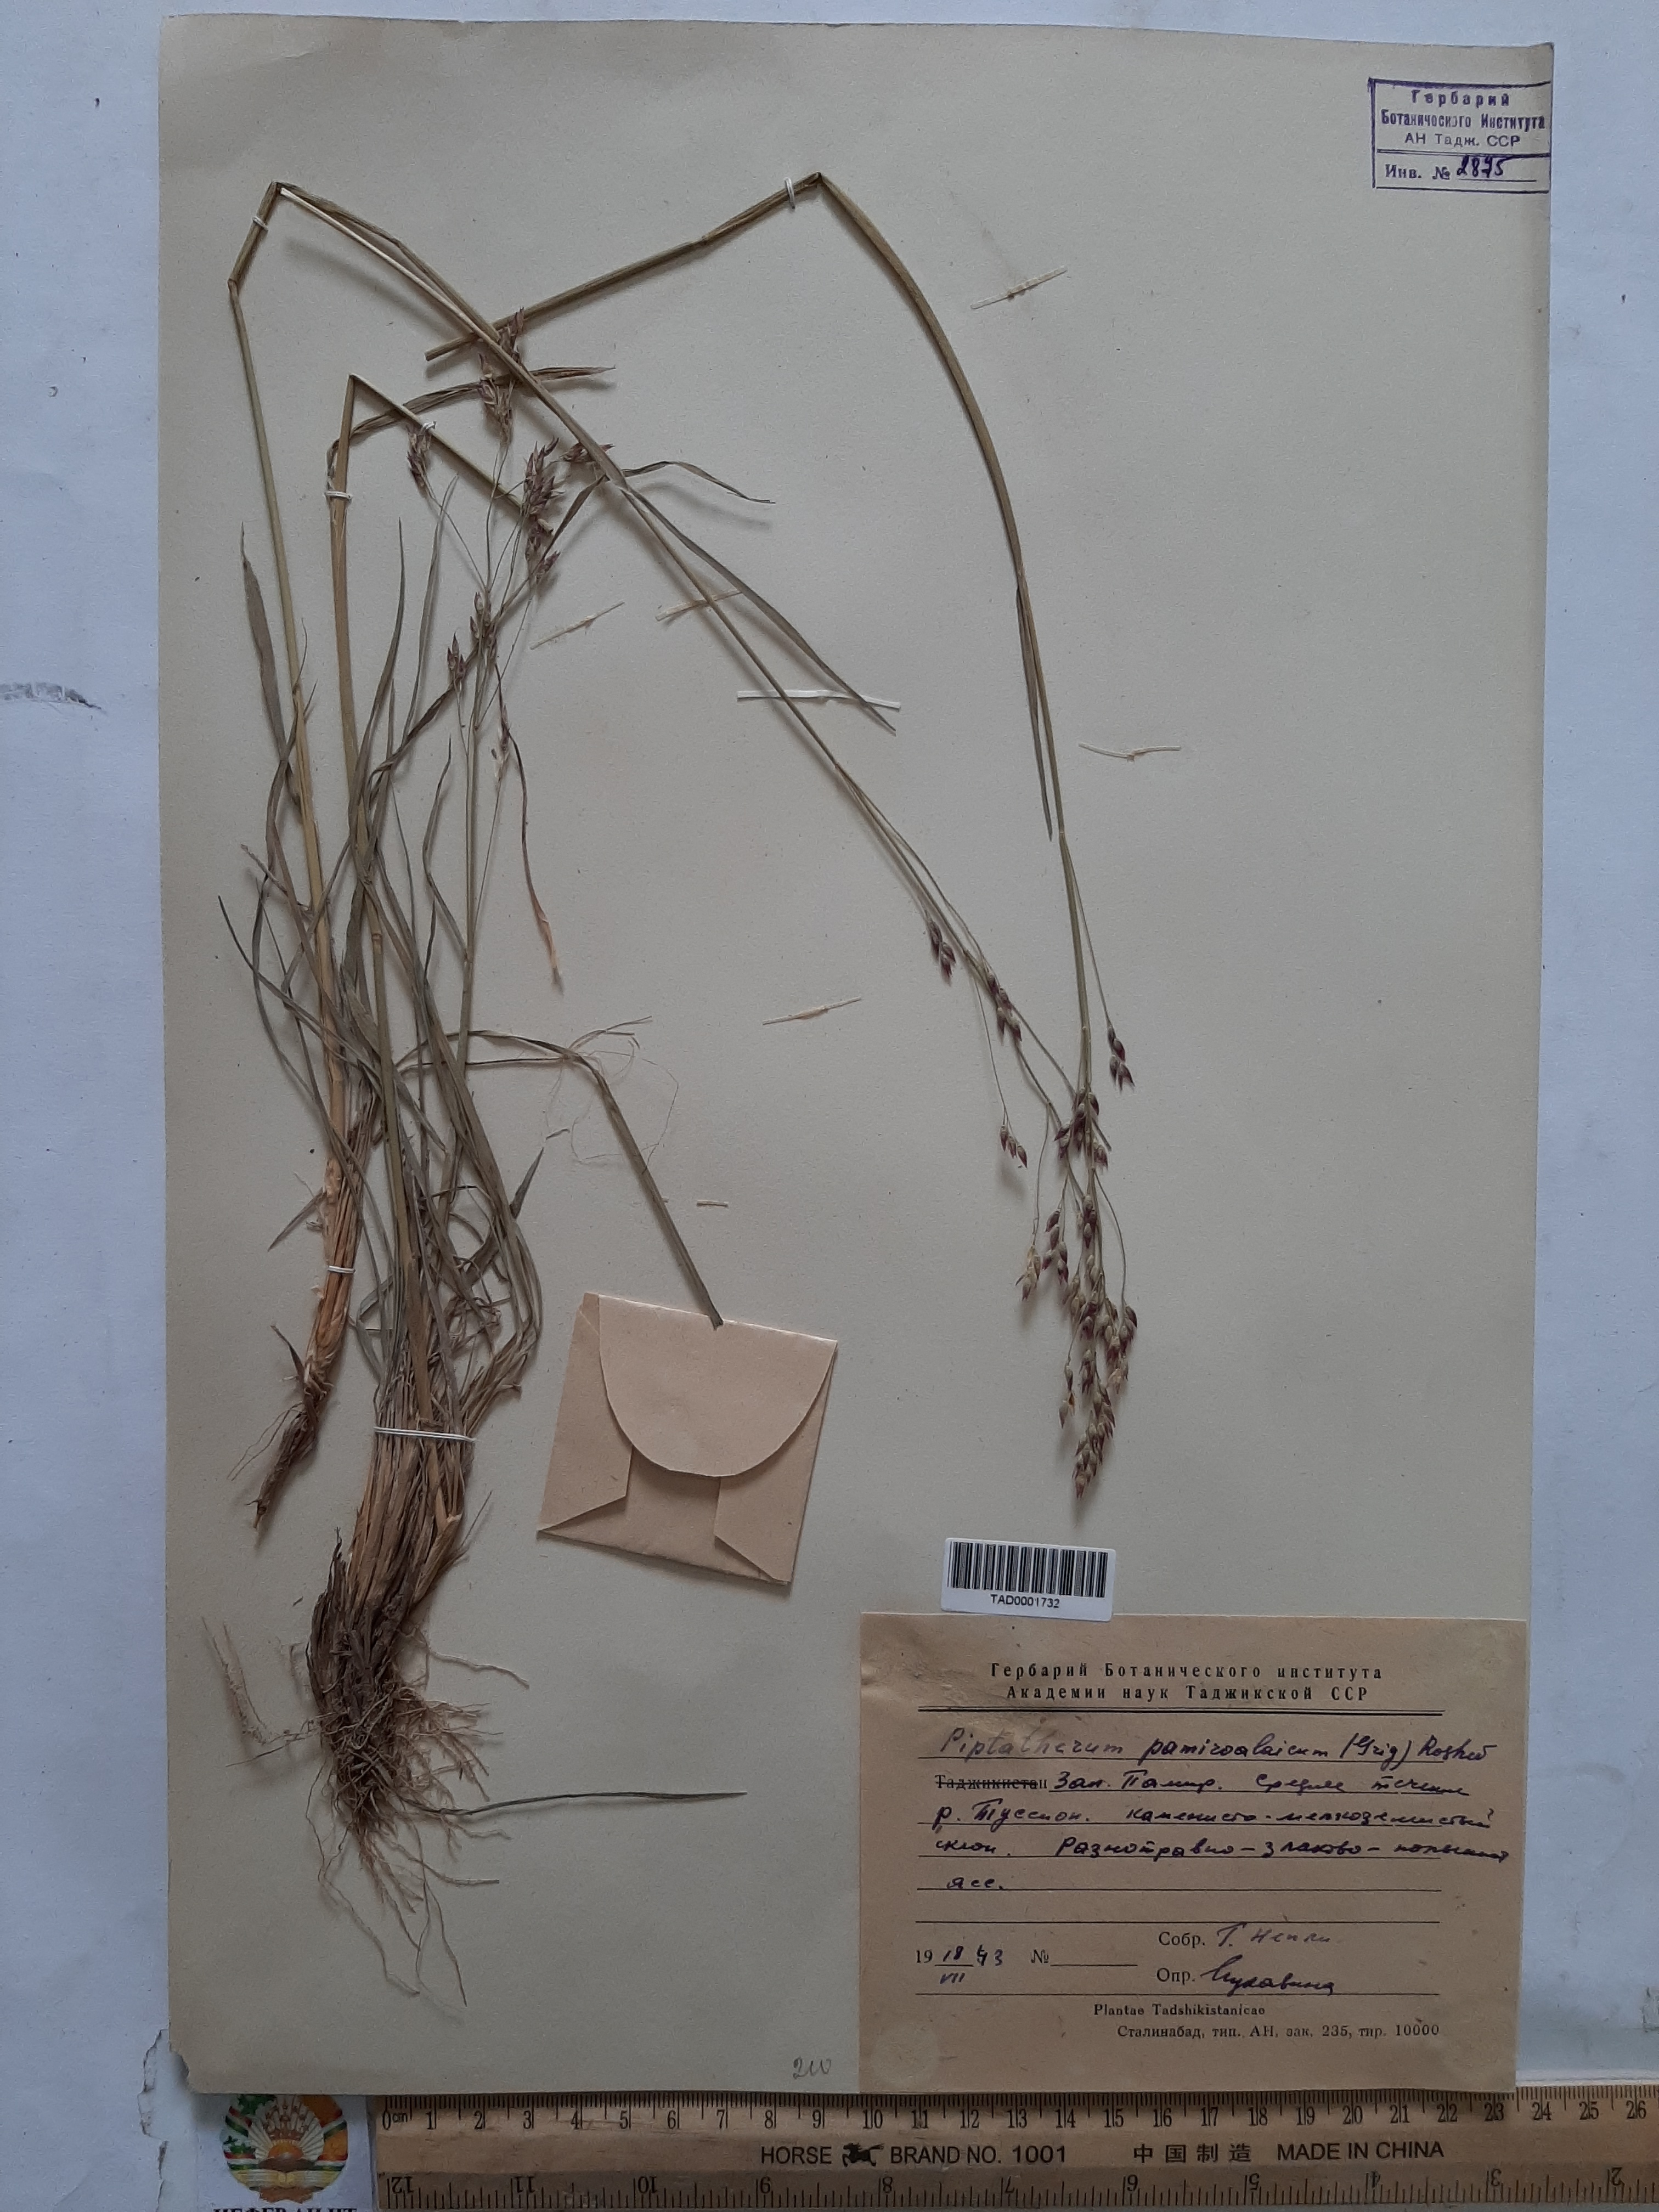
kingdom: Plantae
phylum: Tracheophyta
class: Liliopsida
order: Poales
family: Poaceae
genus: Piptatherum
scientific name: Piptatherum pamiralaicum
